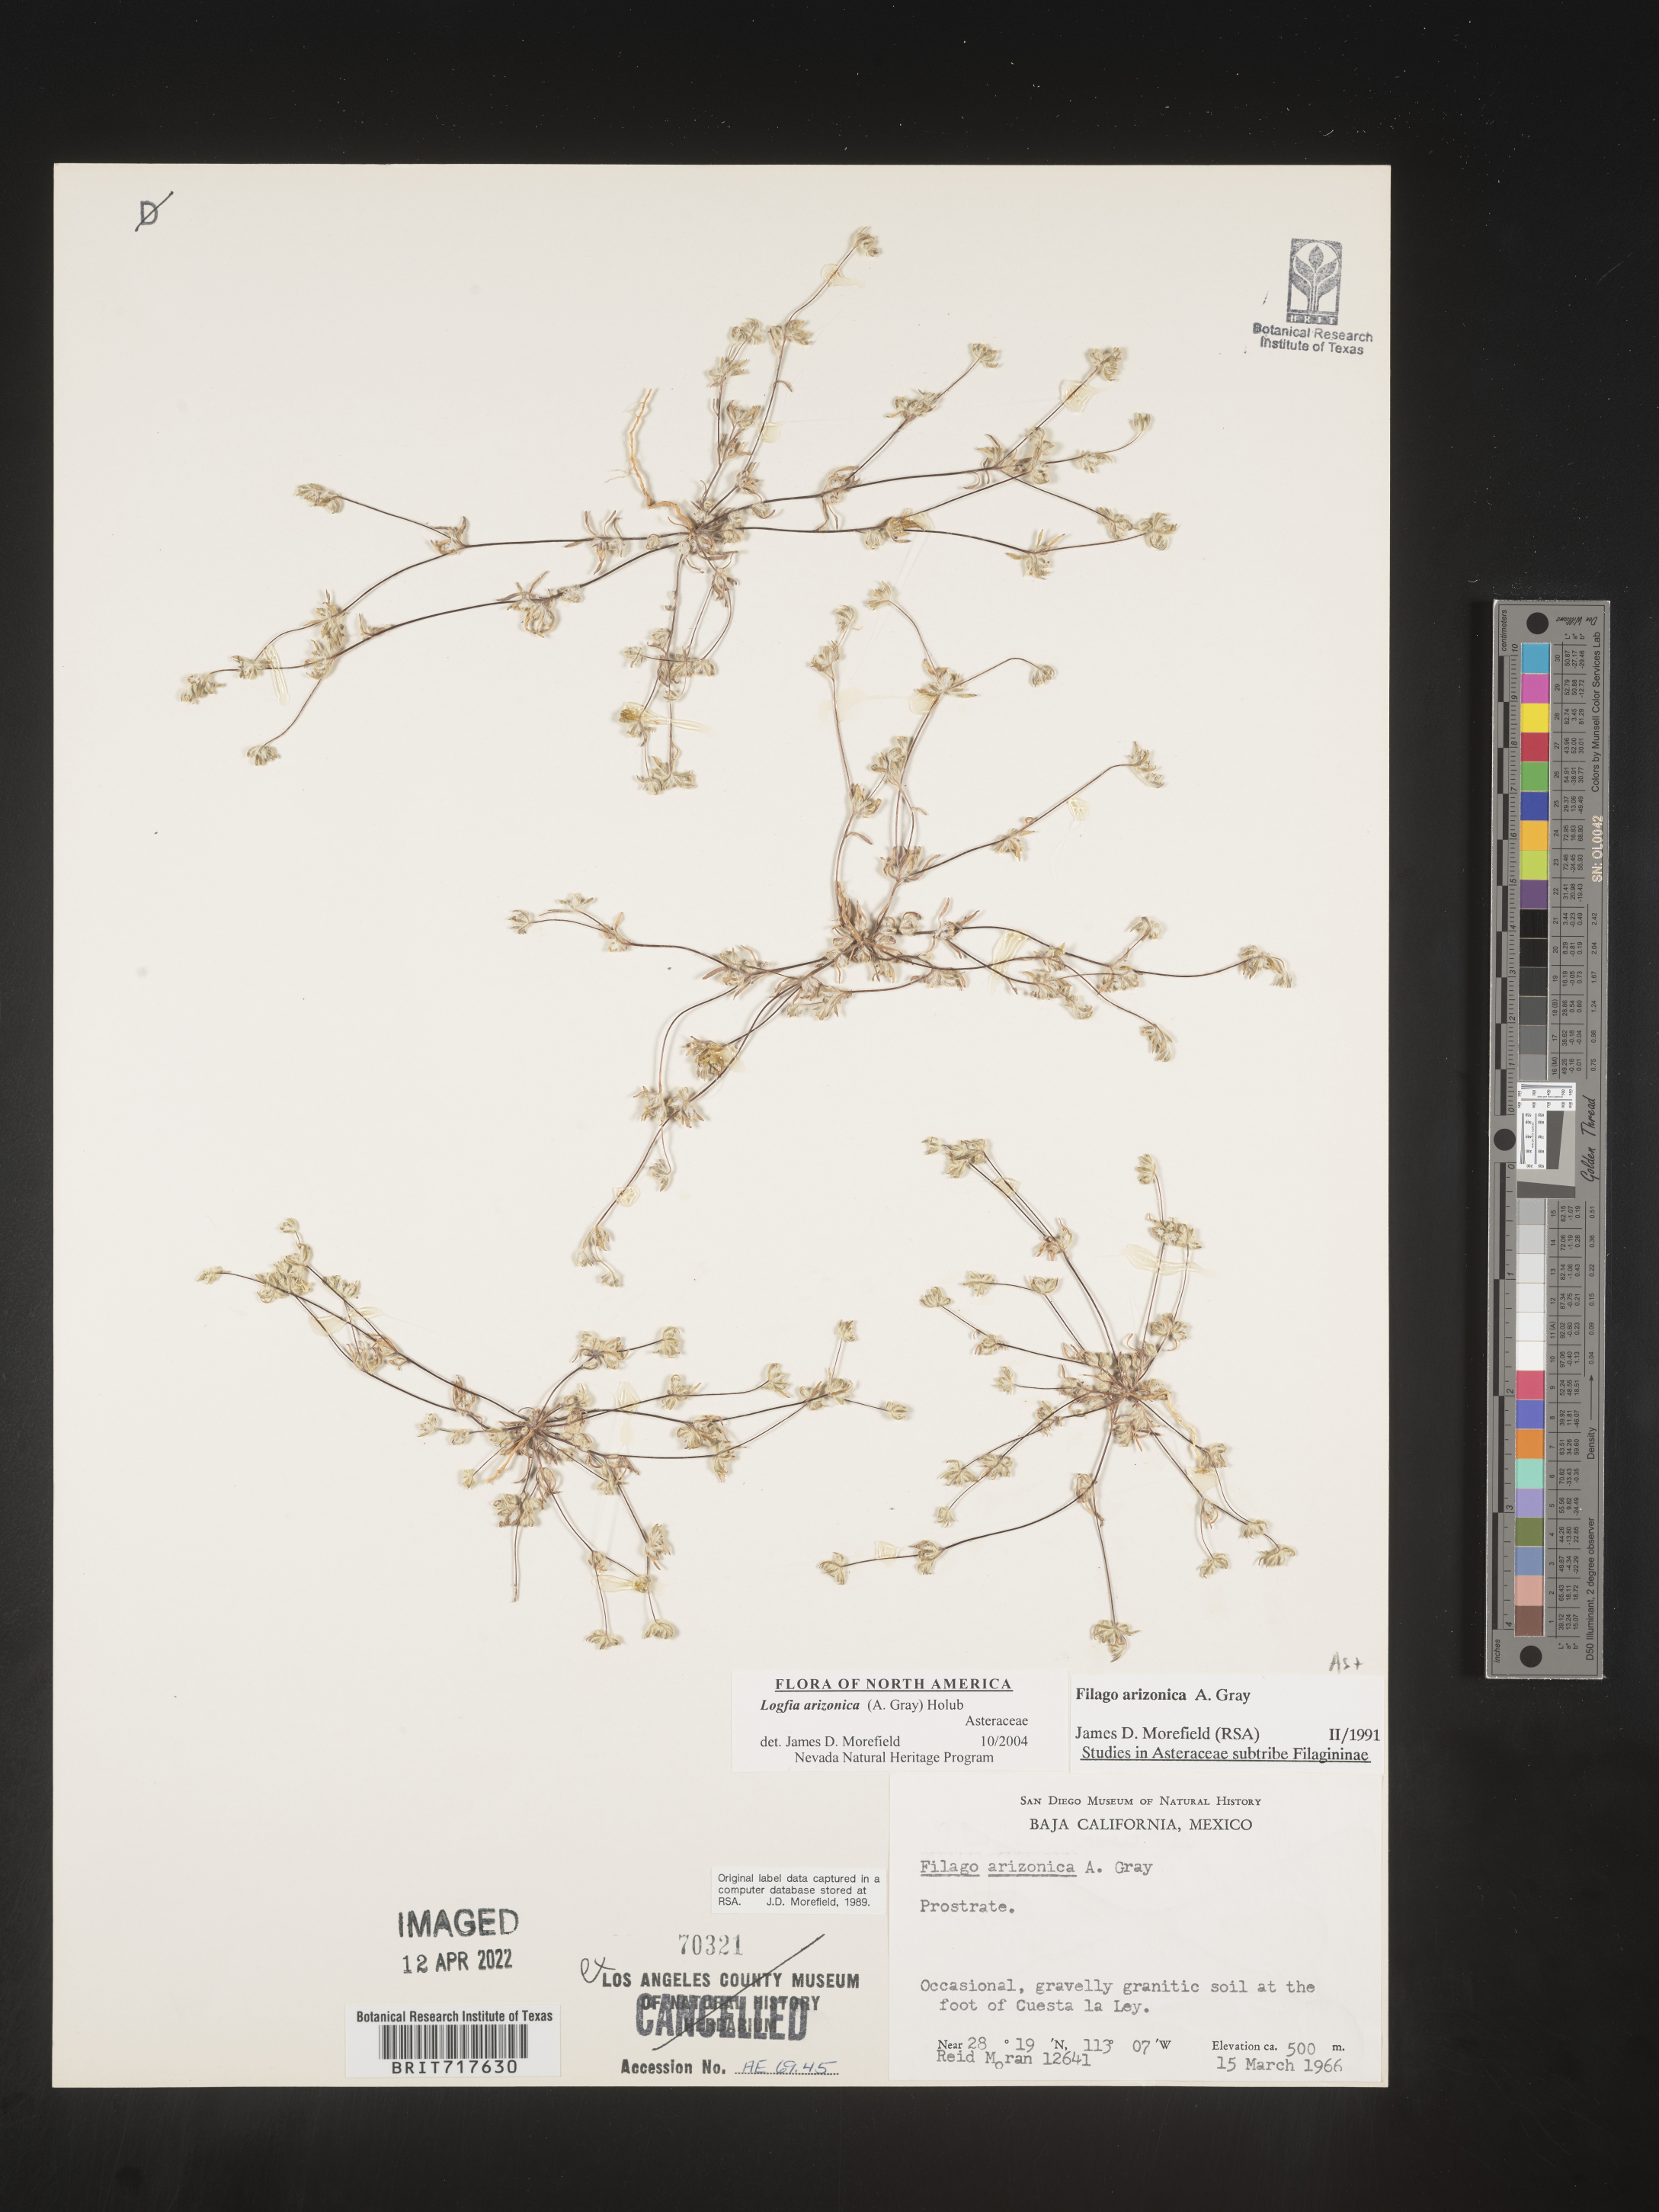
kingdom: Plantae
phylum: Tracheophyta
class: Magnoliopsida
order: Asterales
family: Asteraceae
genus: Filago
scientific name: Filago
